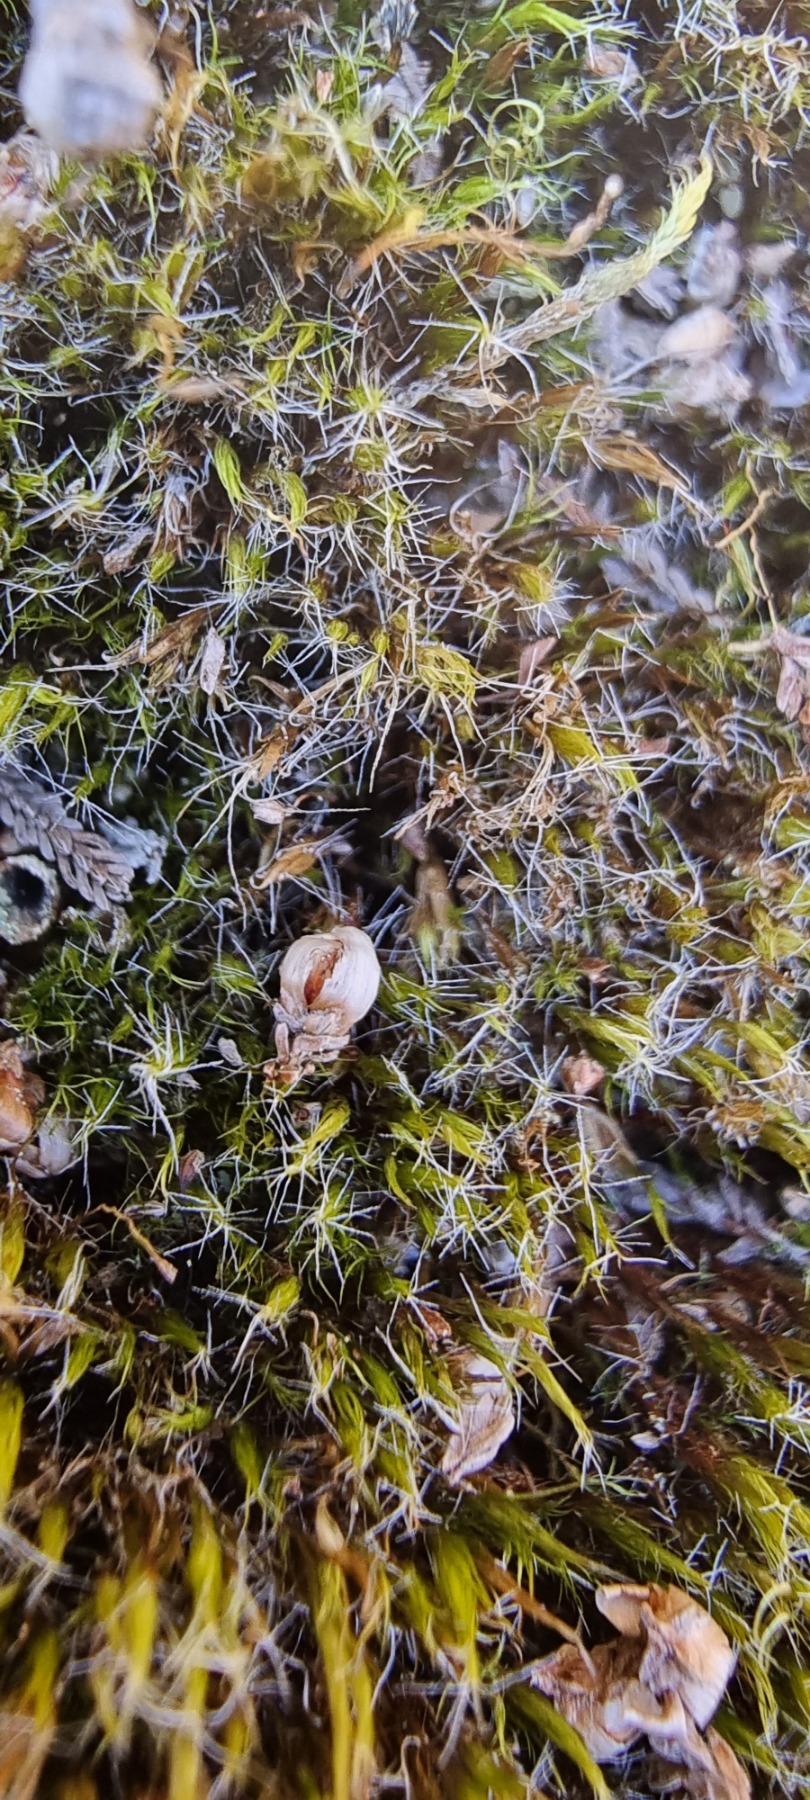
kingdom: Plantae
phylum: Bryophyta
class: Bryopsida
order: Dicranales
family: Leucobryaceae
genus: Campylopus
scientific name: Campylopus introflexus
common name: Stjerne-bredribbe
